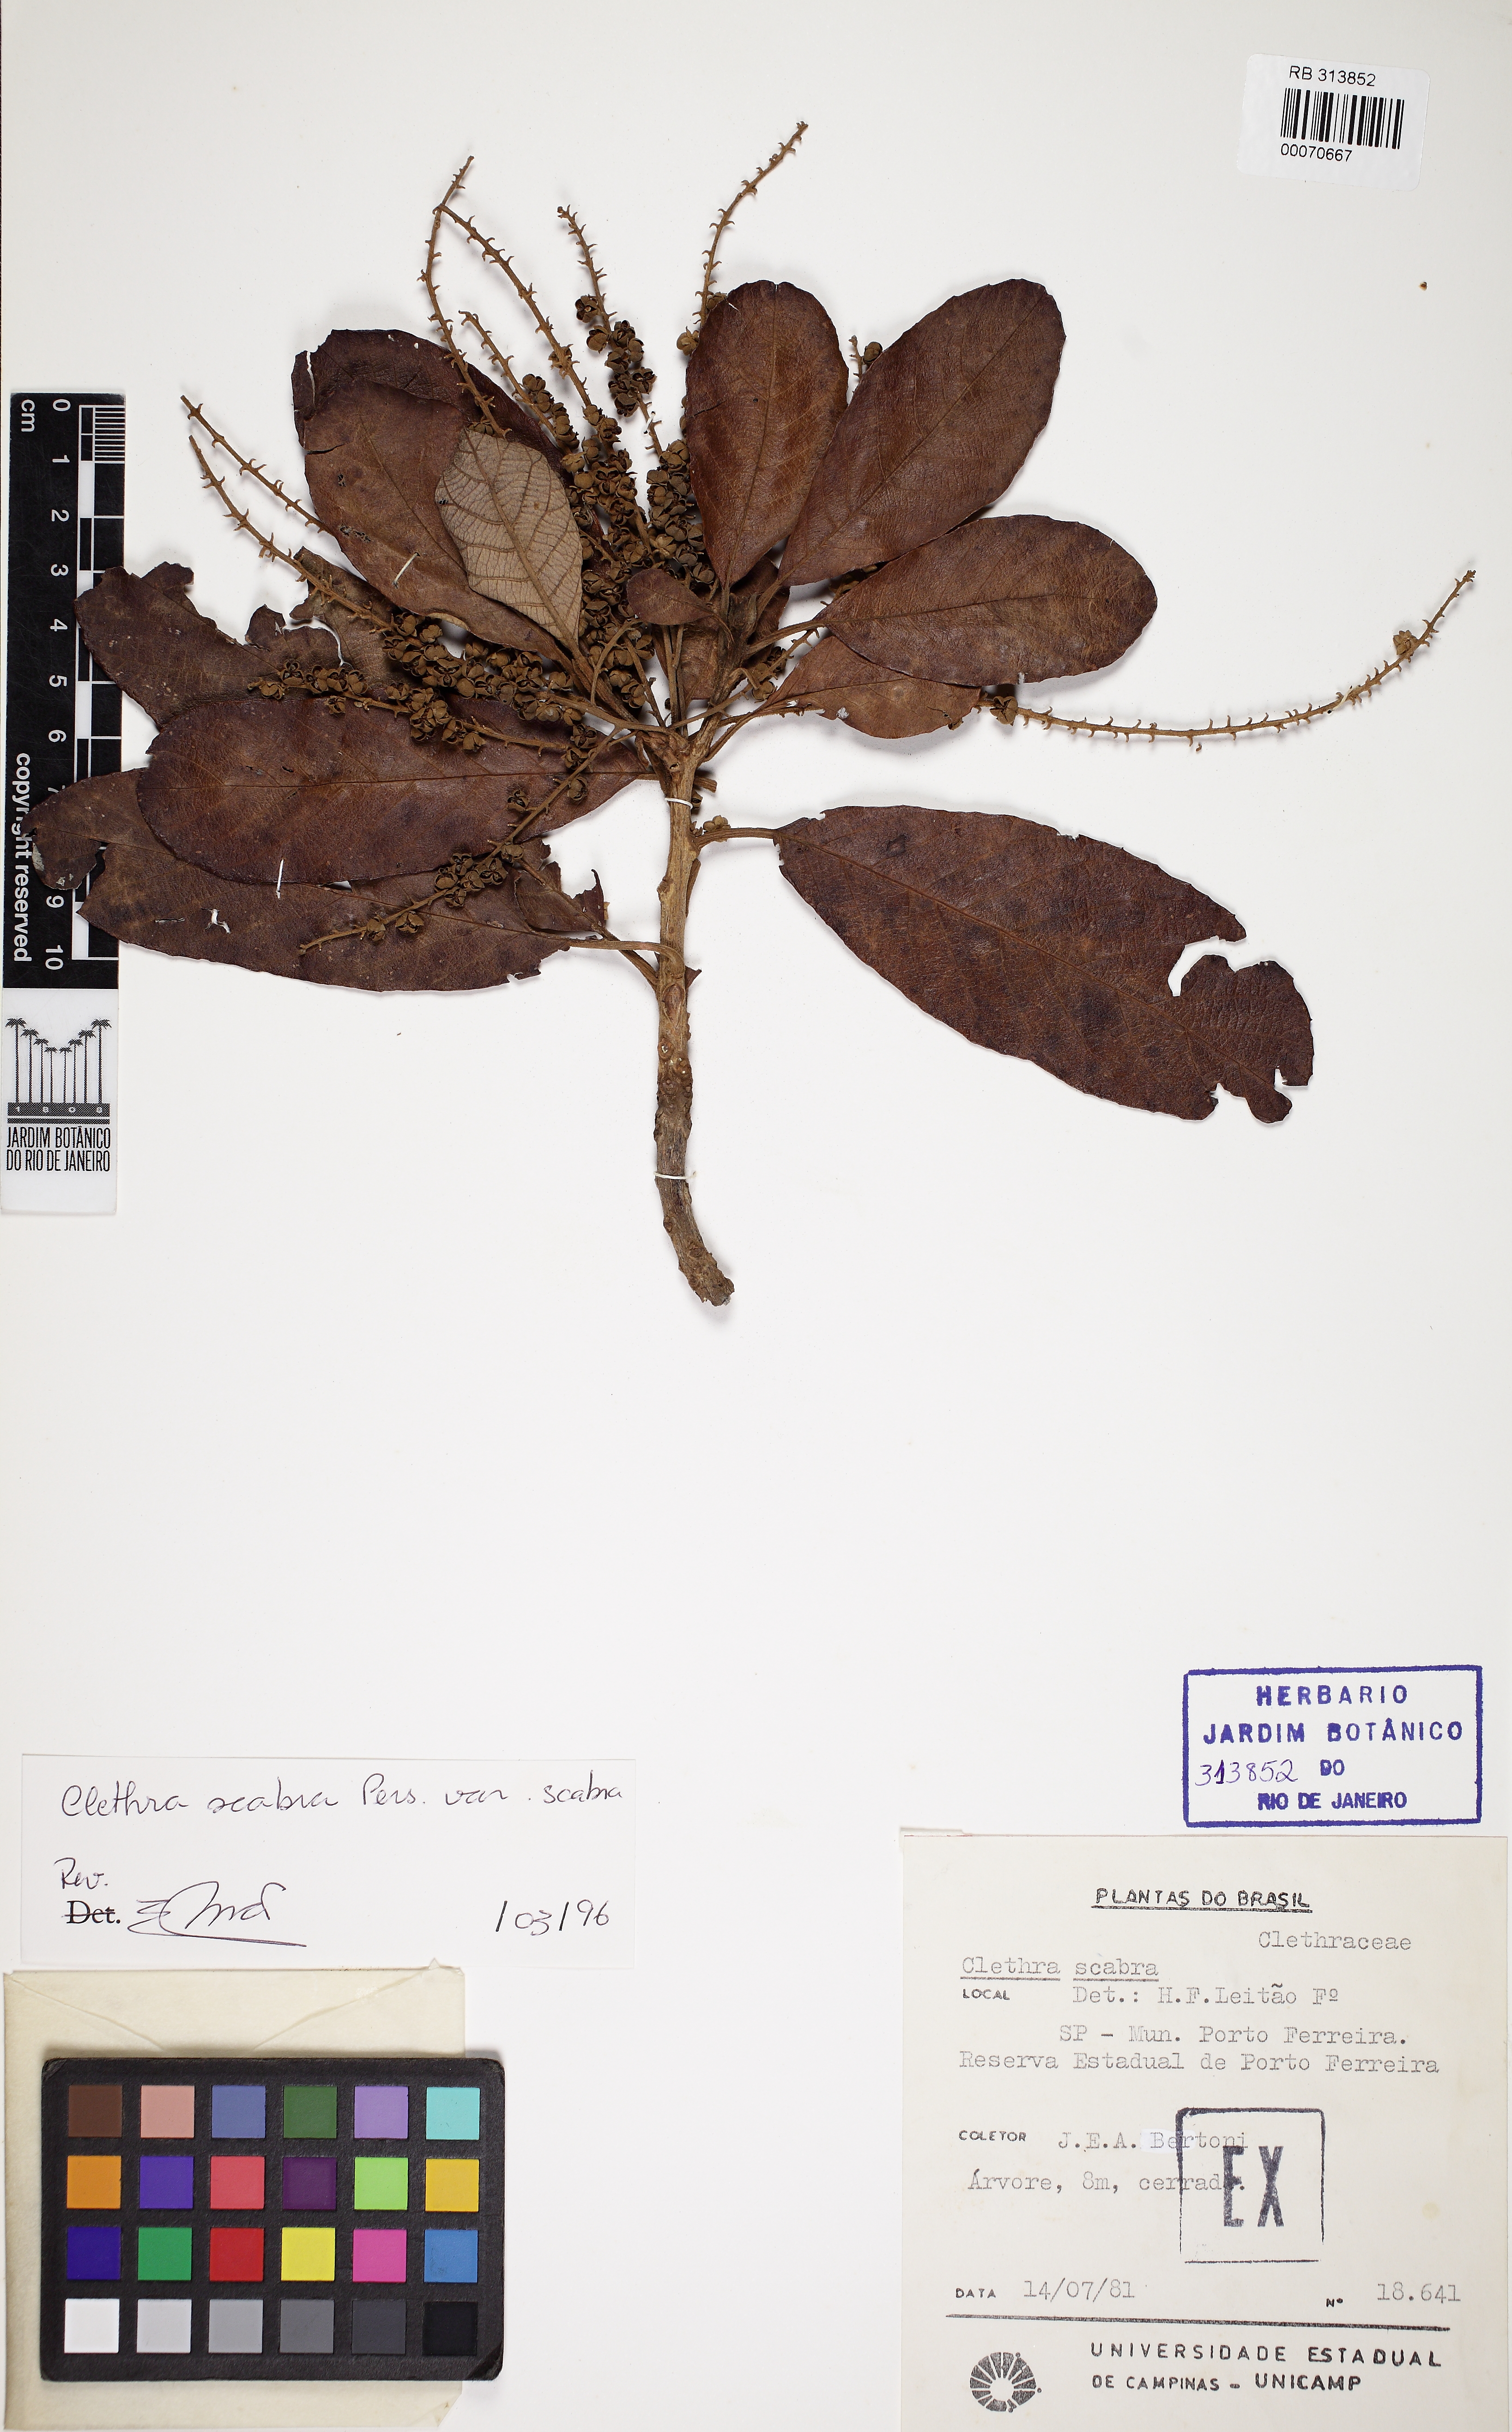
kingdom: Plantae
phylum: Tracheophyta
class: Magnoliopsida
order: Ericales
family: Clethraceae
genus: Clethra
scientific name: Clethra scabra
